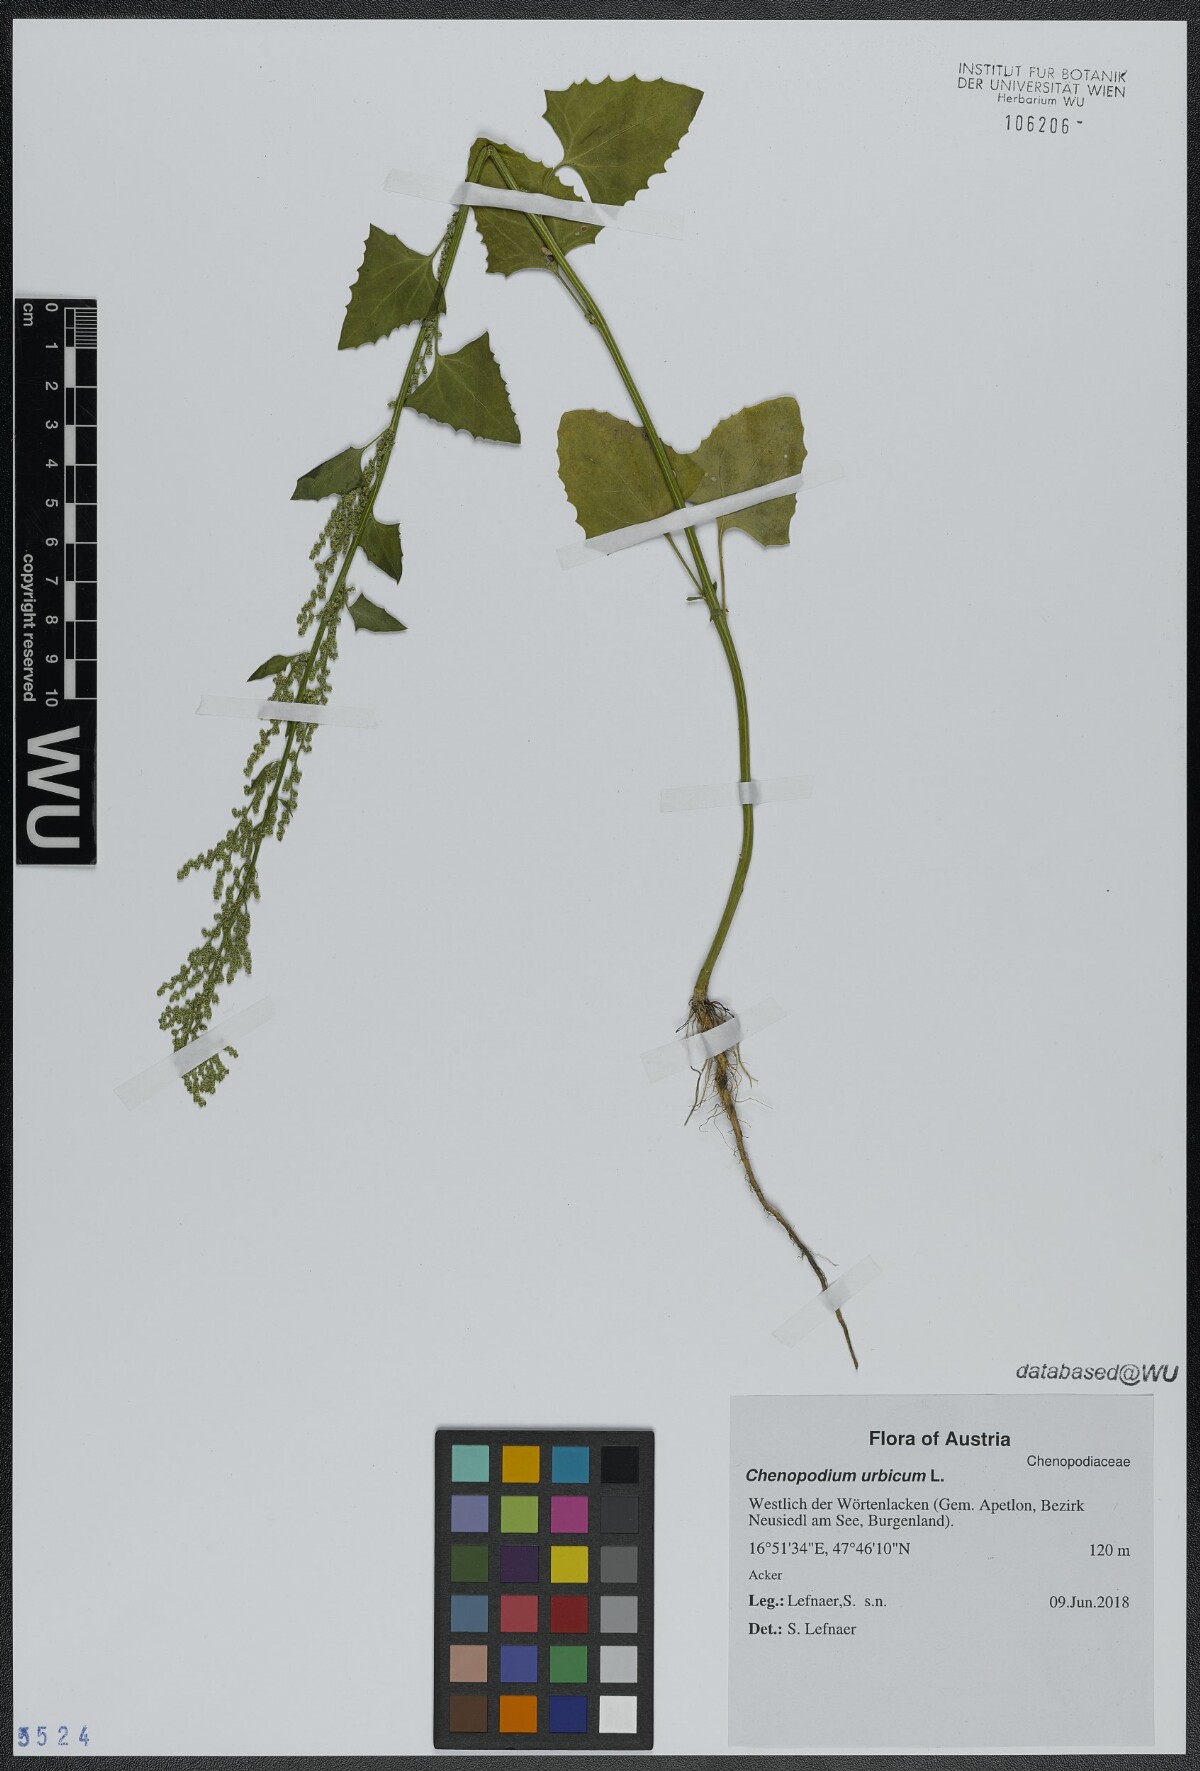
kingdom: Plantae
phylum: Tracheophyta
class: Magnoliopsida
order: Caryophyllales
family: Amaranthaceae
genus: Oxybasis
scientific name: Oxybasis urbica
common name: City goosefoot
